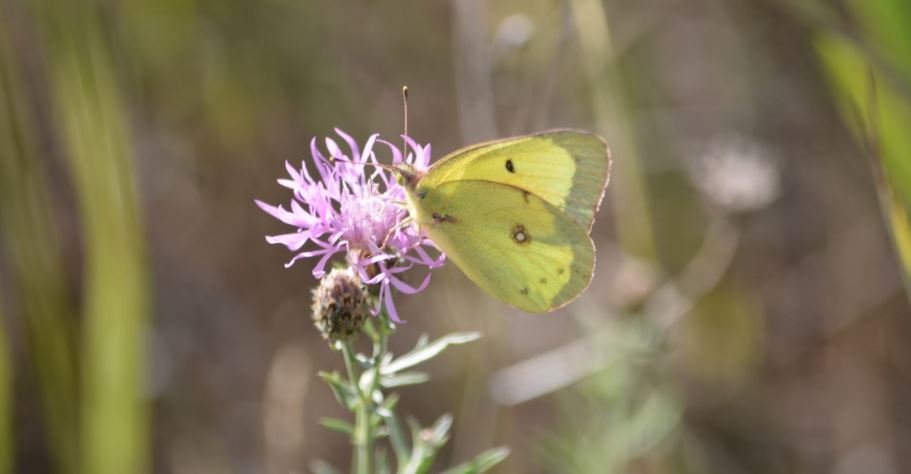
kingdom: Animalia
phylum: Arthropoda
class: Insecta
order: Lepidoptera
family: Pieridae
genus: Colias
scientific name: Colias philodice
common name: Clouded Sulphur
